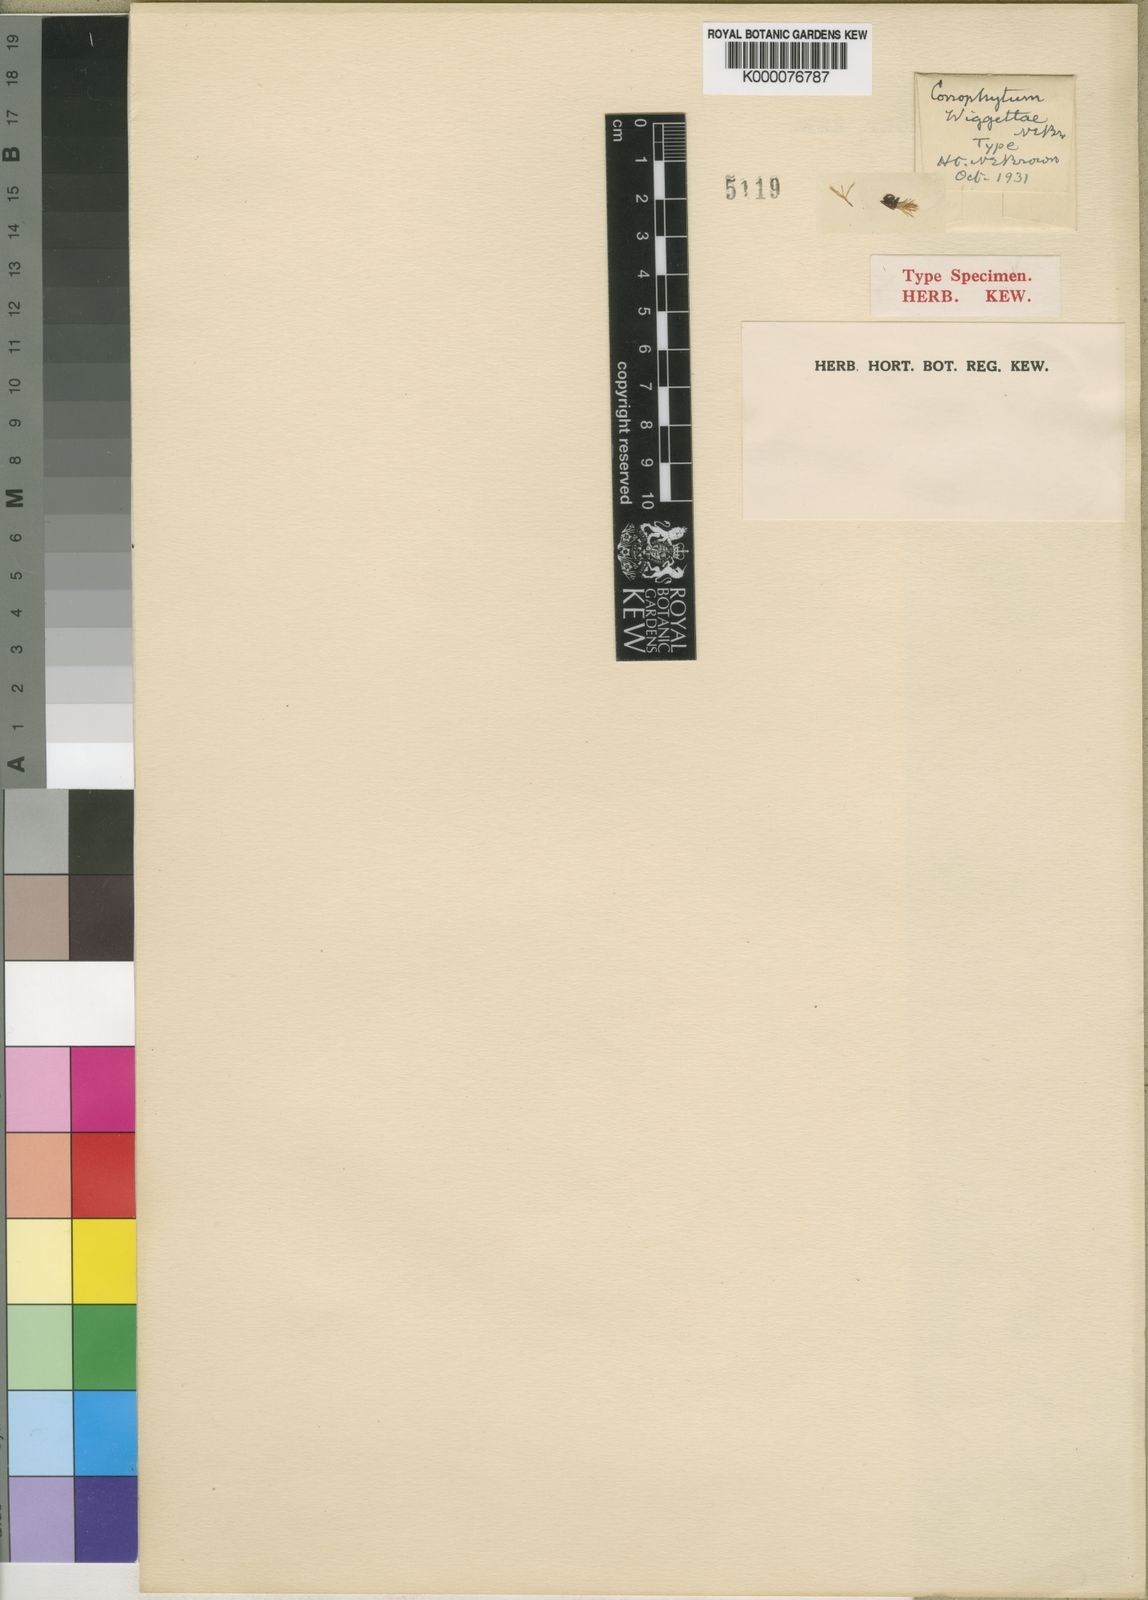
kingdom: Plantae
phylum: Tracheophyta
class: Magnoliopsida
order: Caryophyllales
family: Aizoaceae
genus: Conophytum
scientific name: Conophytum truncatum
